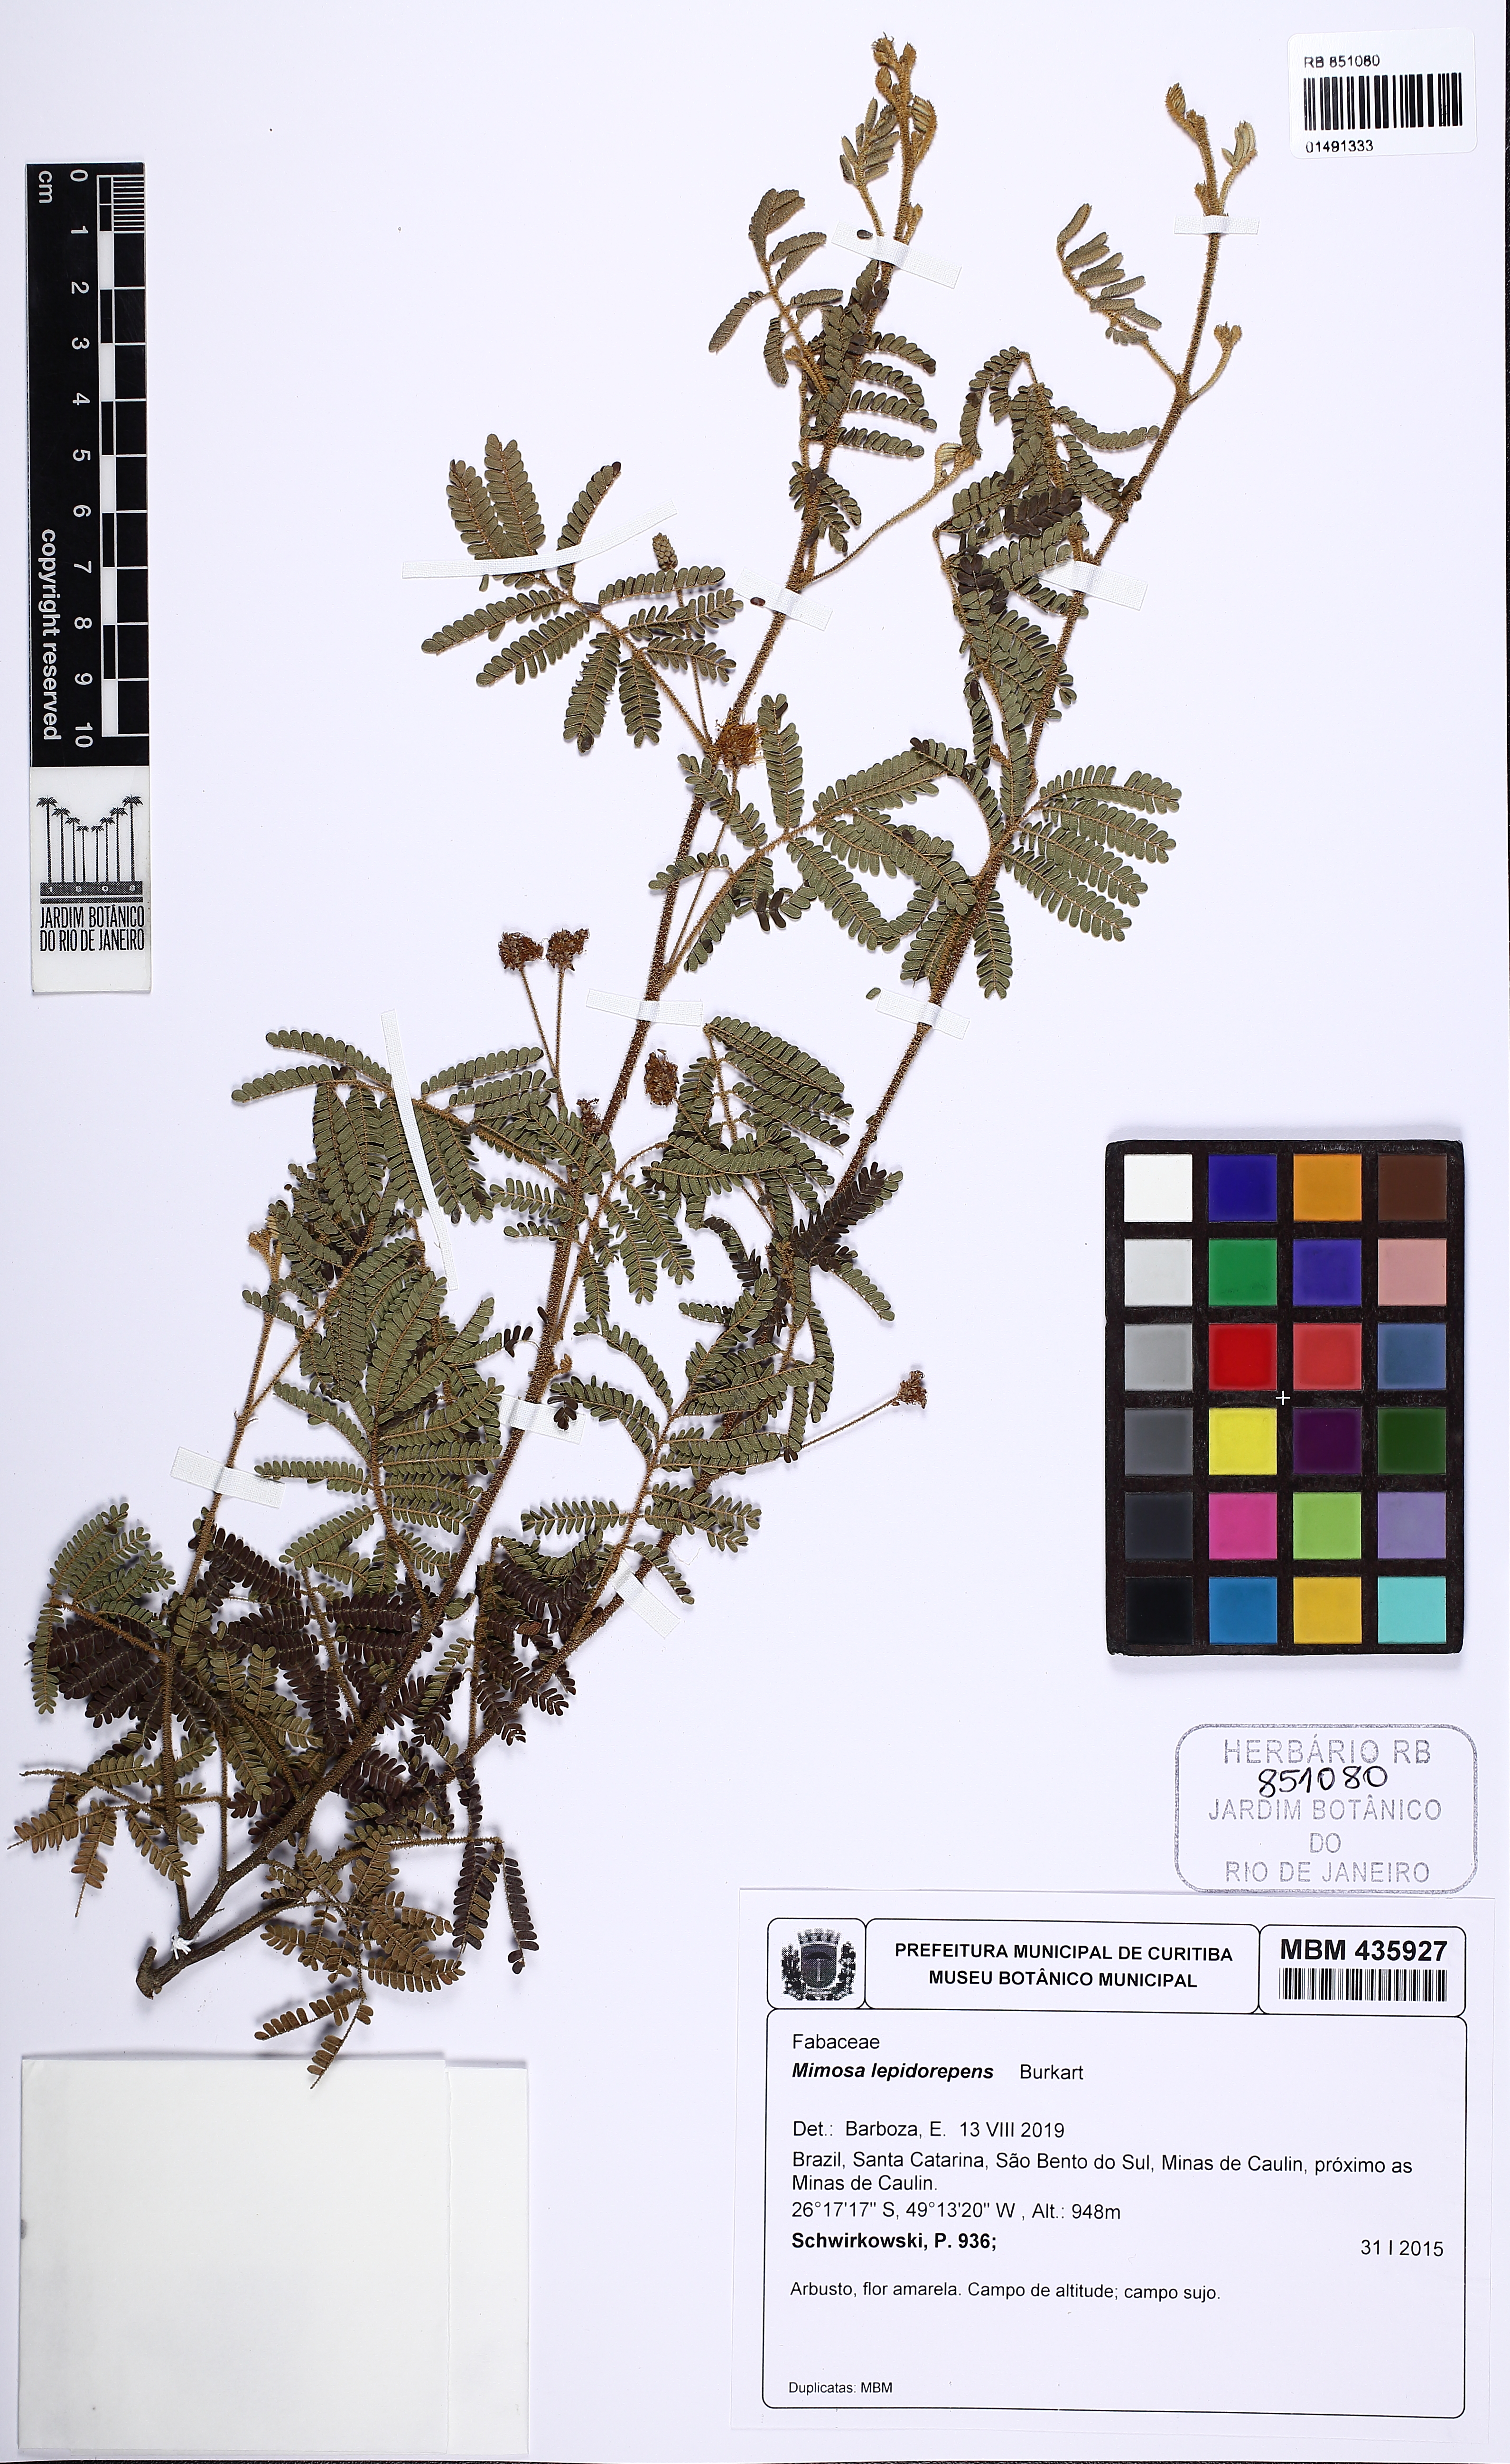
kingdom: Plantae
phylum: Tracheophyta
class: Magnoliopsida
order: Fabales
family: Fabaceae
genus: Mimosa
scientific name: Mimosa lepidorepens
